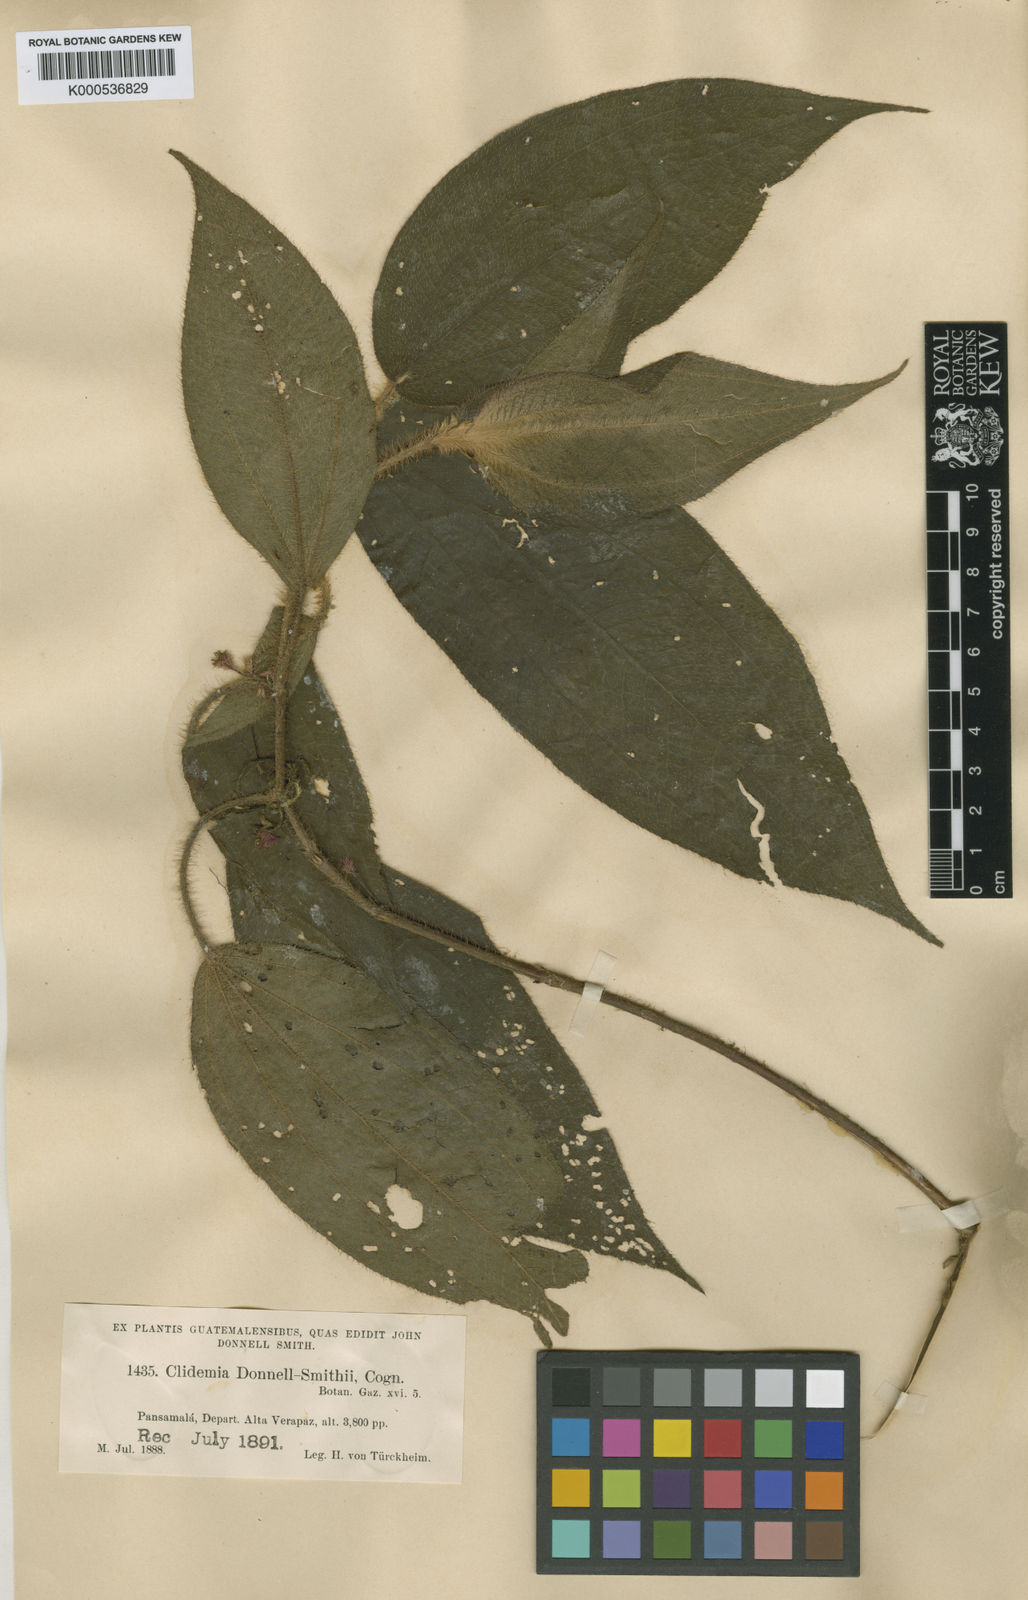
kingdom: Plantae
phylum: Tracheophyta
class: Magnoliopsida
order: Myrtales
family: Melastomataceae
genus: Miconia
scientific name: Miconia mesoamericana
